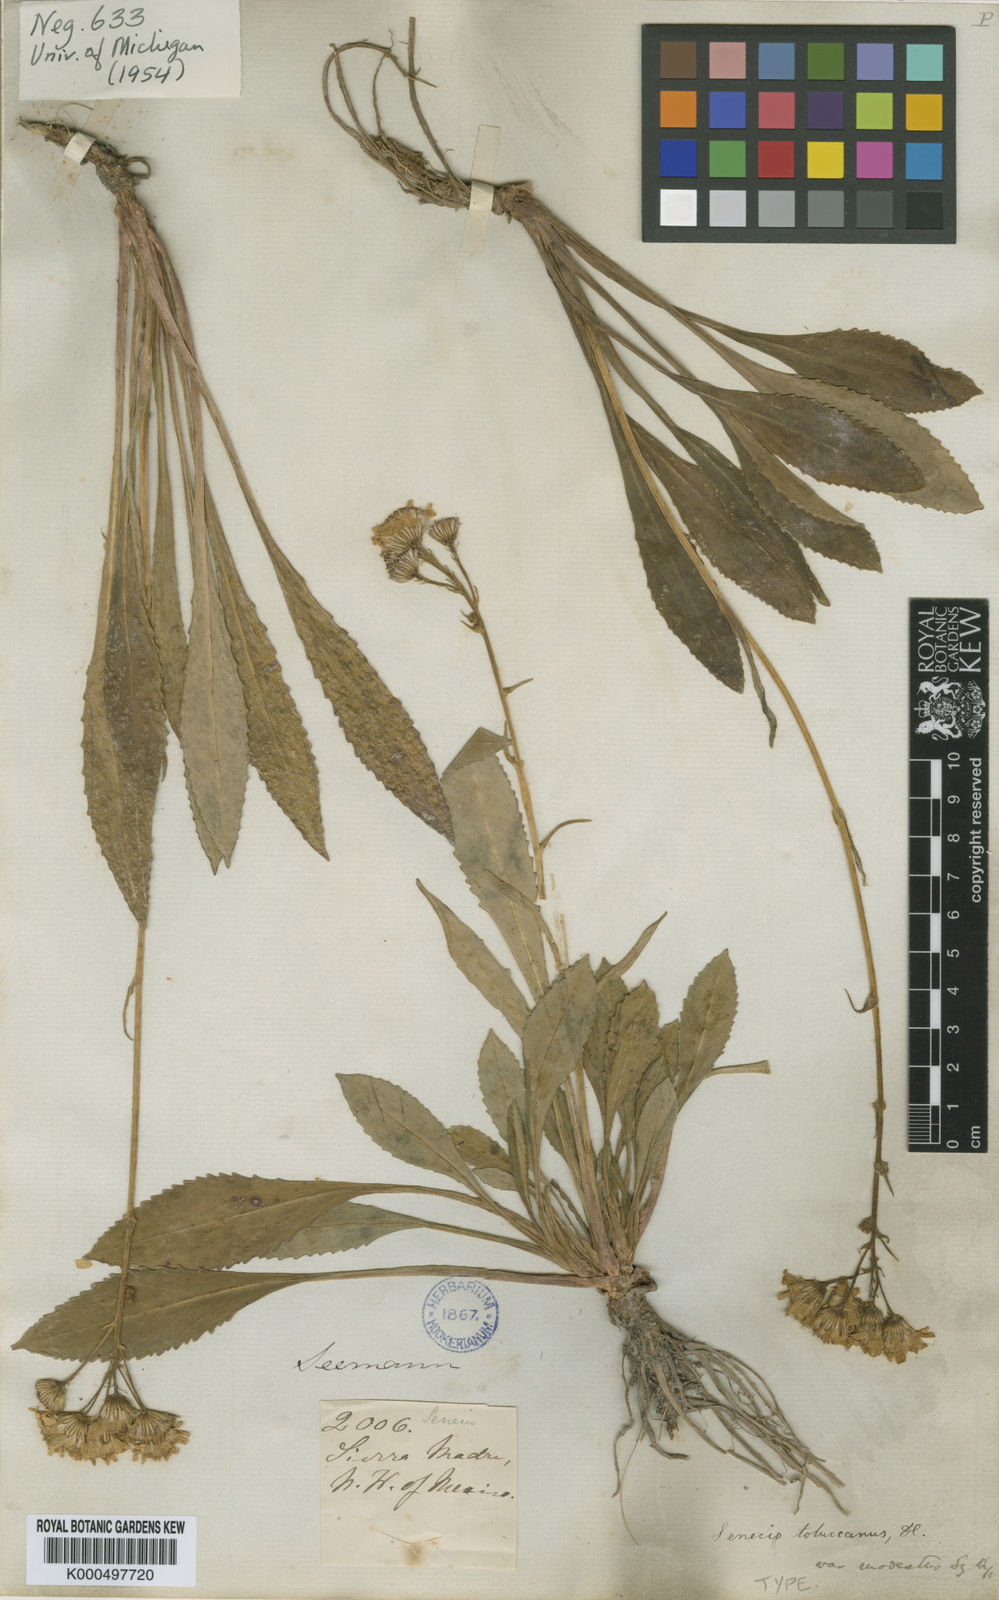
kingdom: Plantae
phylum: Tracheophyta
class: Magnoliopsida
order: Asterales
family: Asteraceae
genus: Packera
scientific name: Packera toluccana
